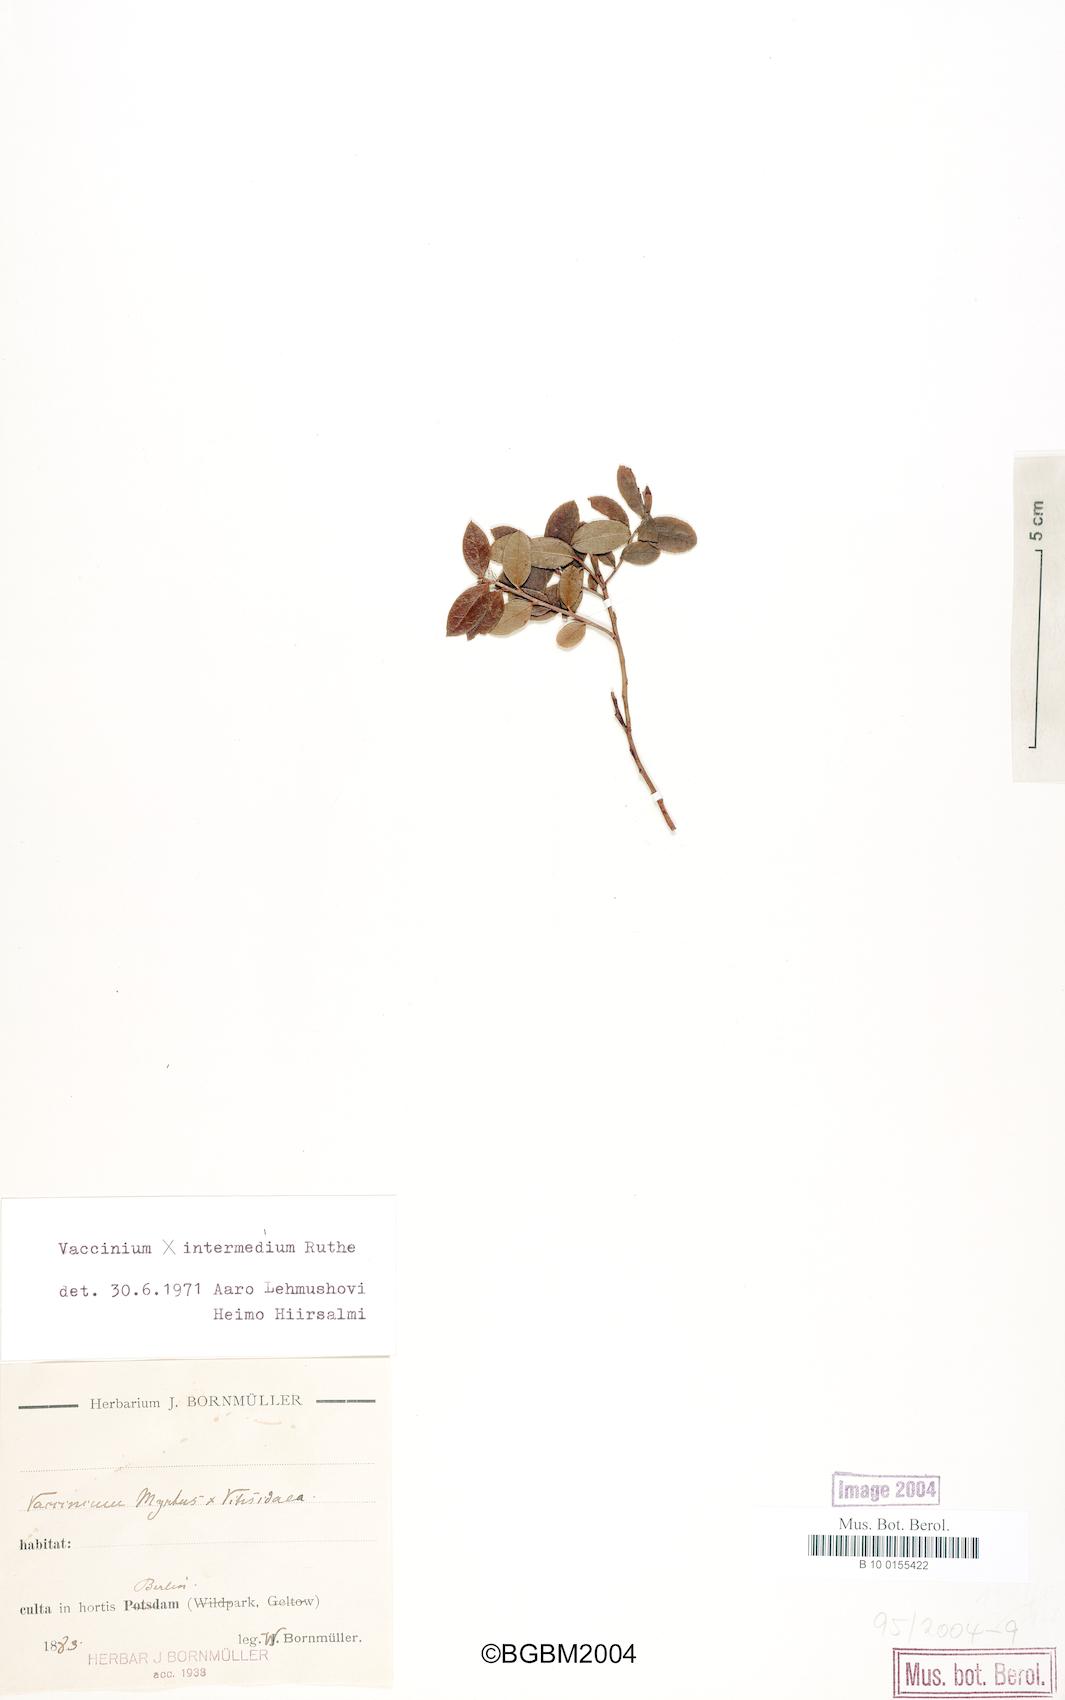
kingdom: Plantae
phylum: Tracheophyta
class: Magnoliopsida
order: Ericales
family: Ericaceae
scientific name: Ericaceae
